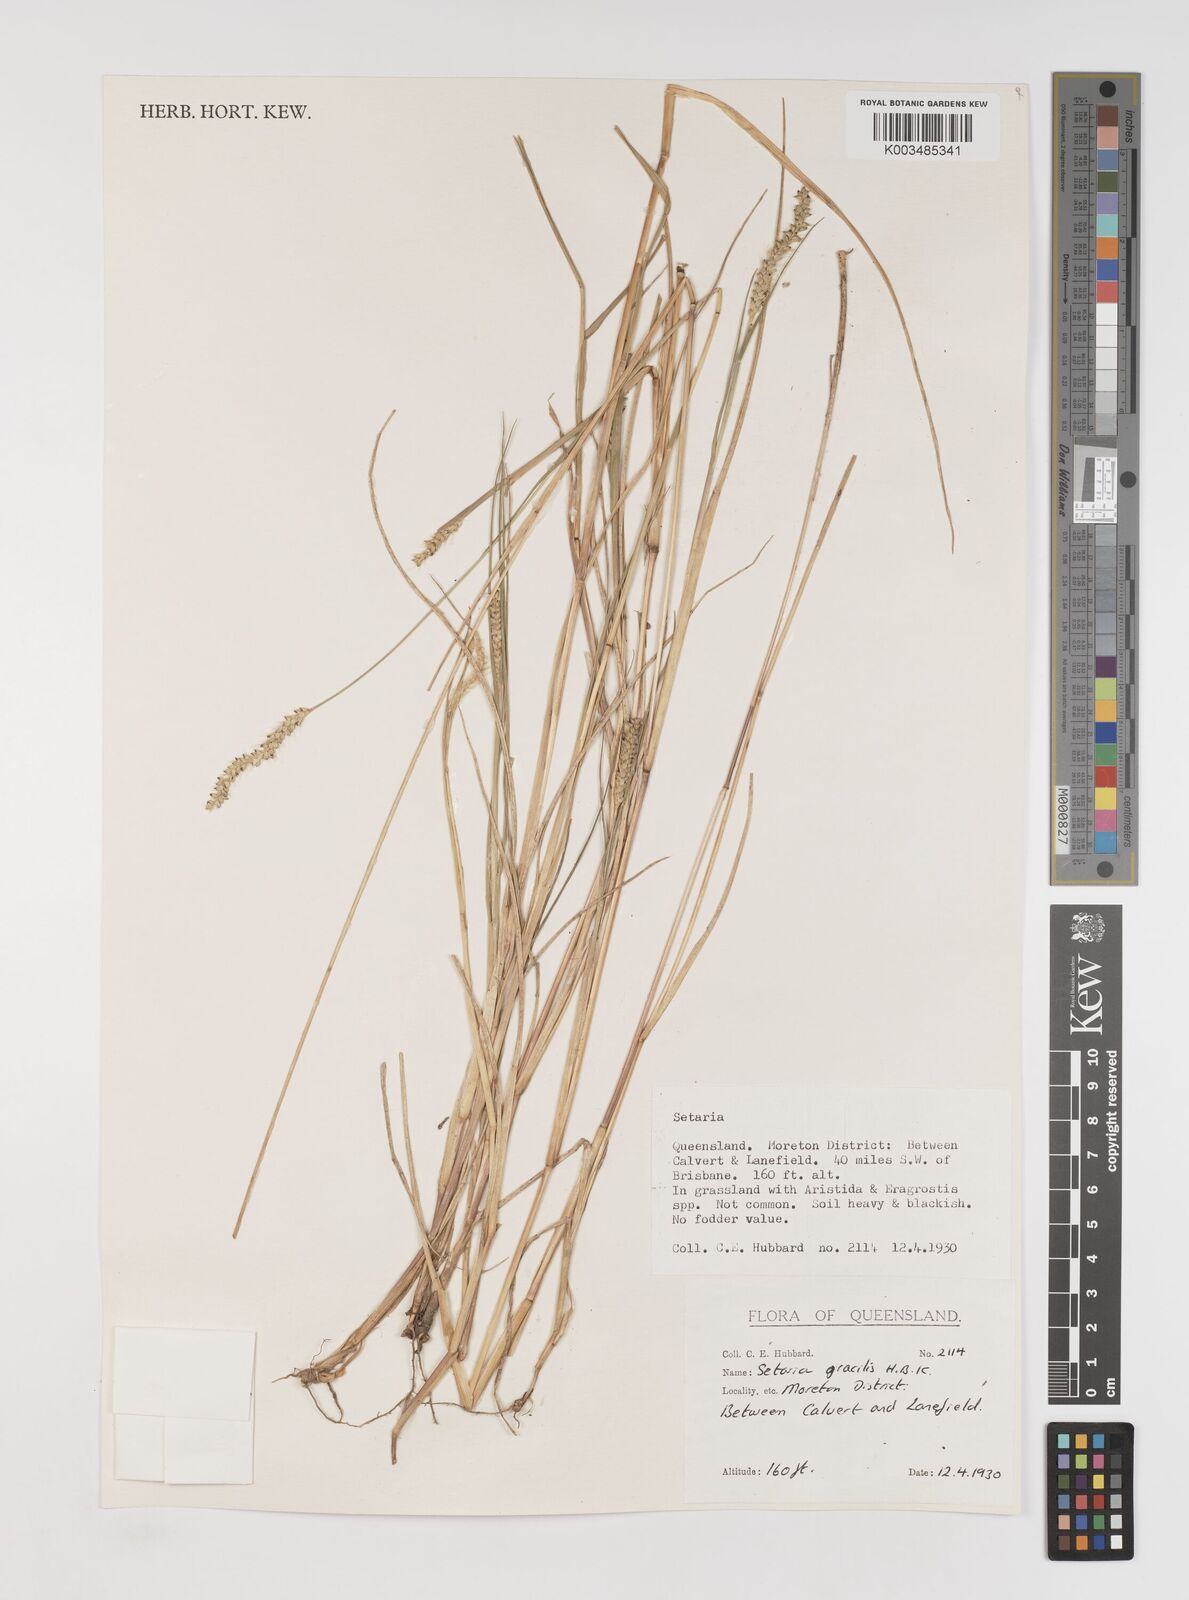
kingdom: Plantae
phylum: Tracheophyta
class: Liliopsida
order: Poales
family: Poaceae
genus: Setaria
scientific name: Setaria parviflora
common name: Knotroot bristle-grass
